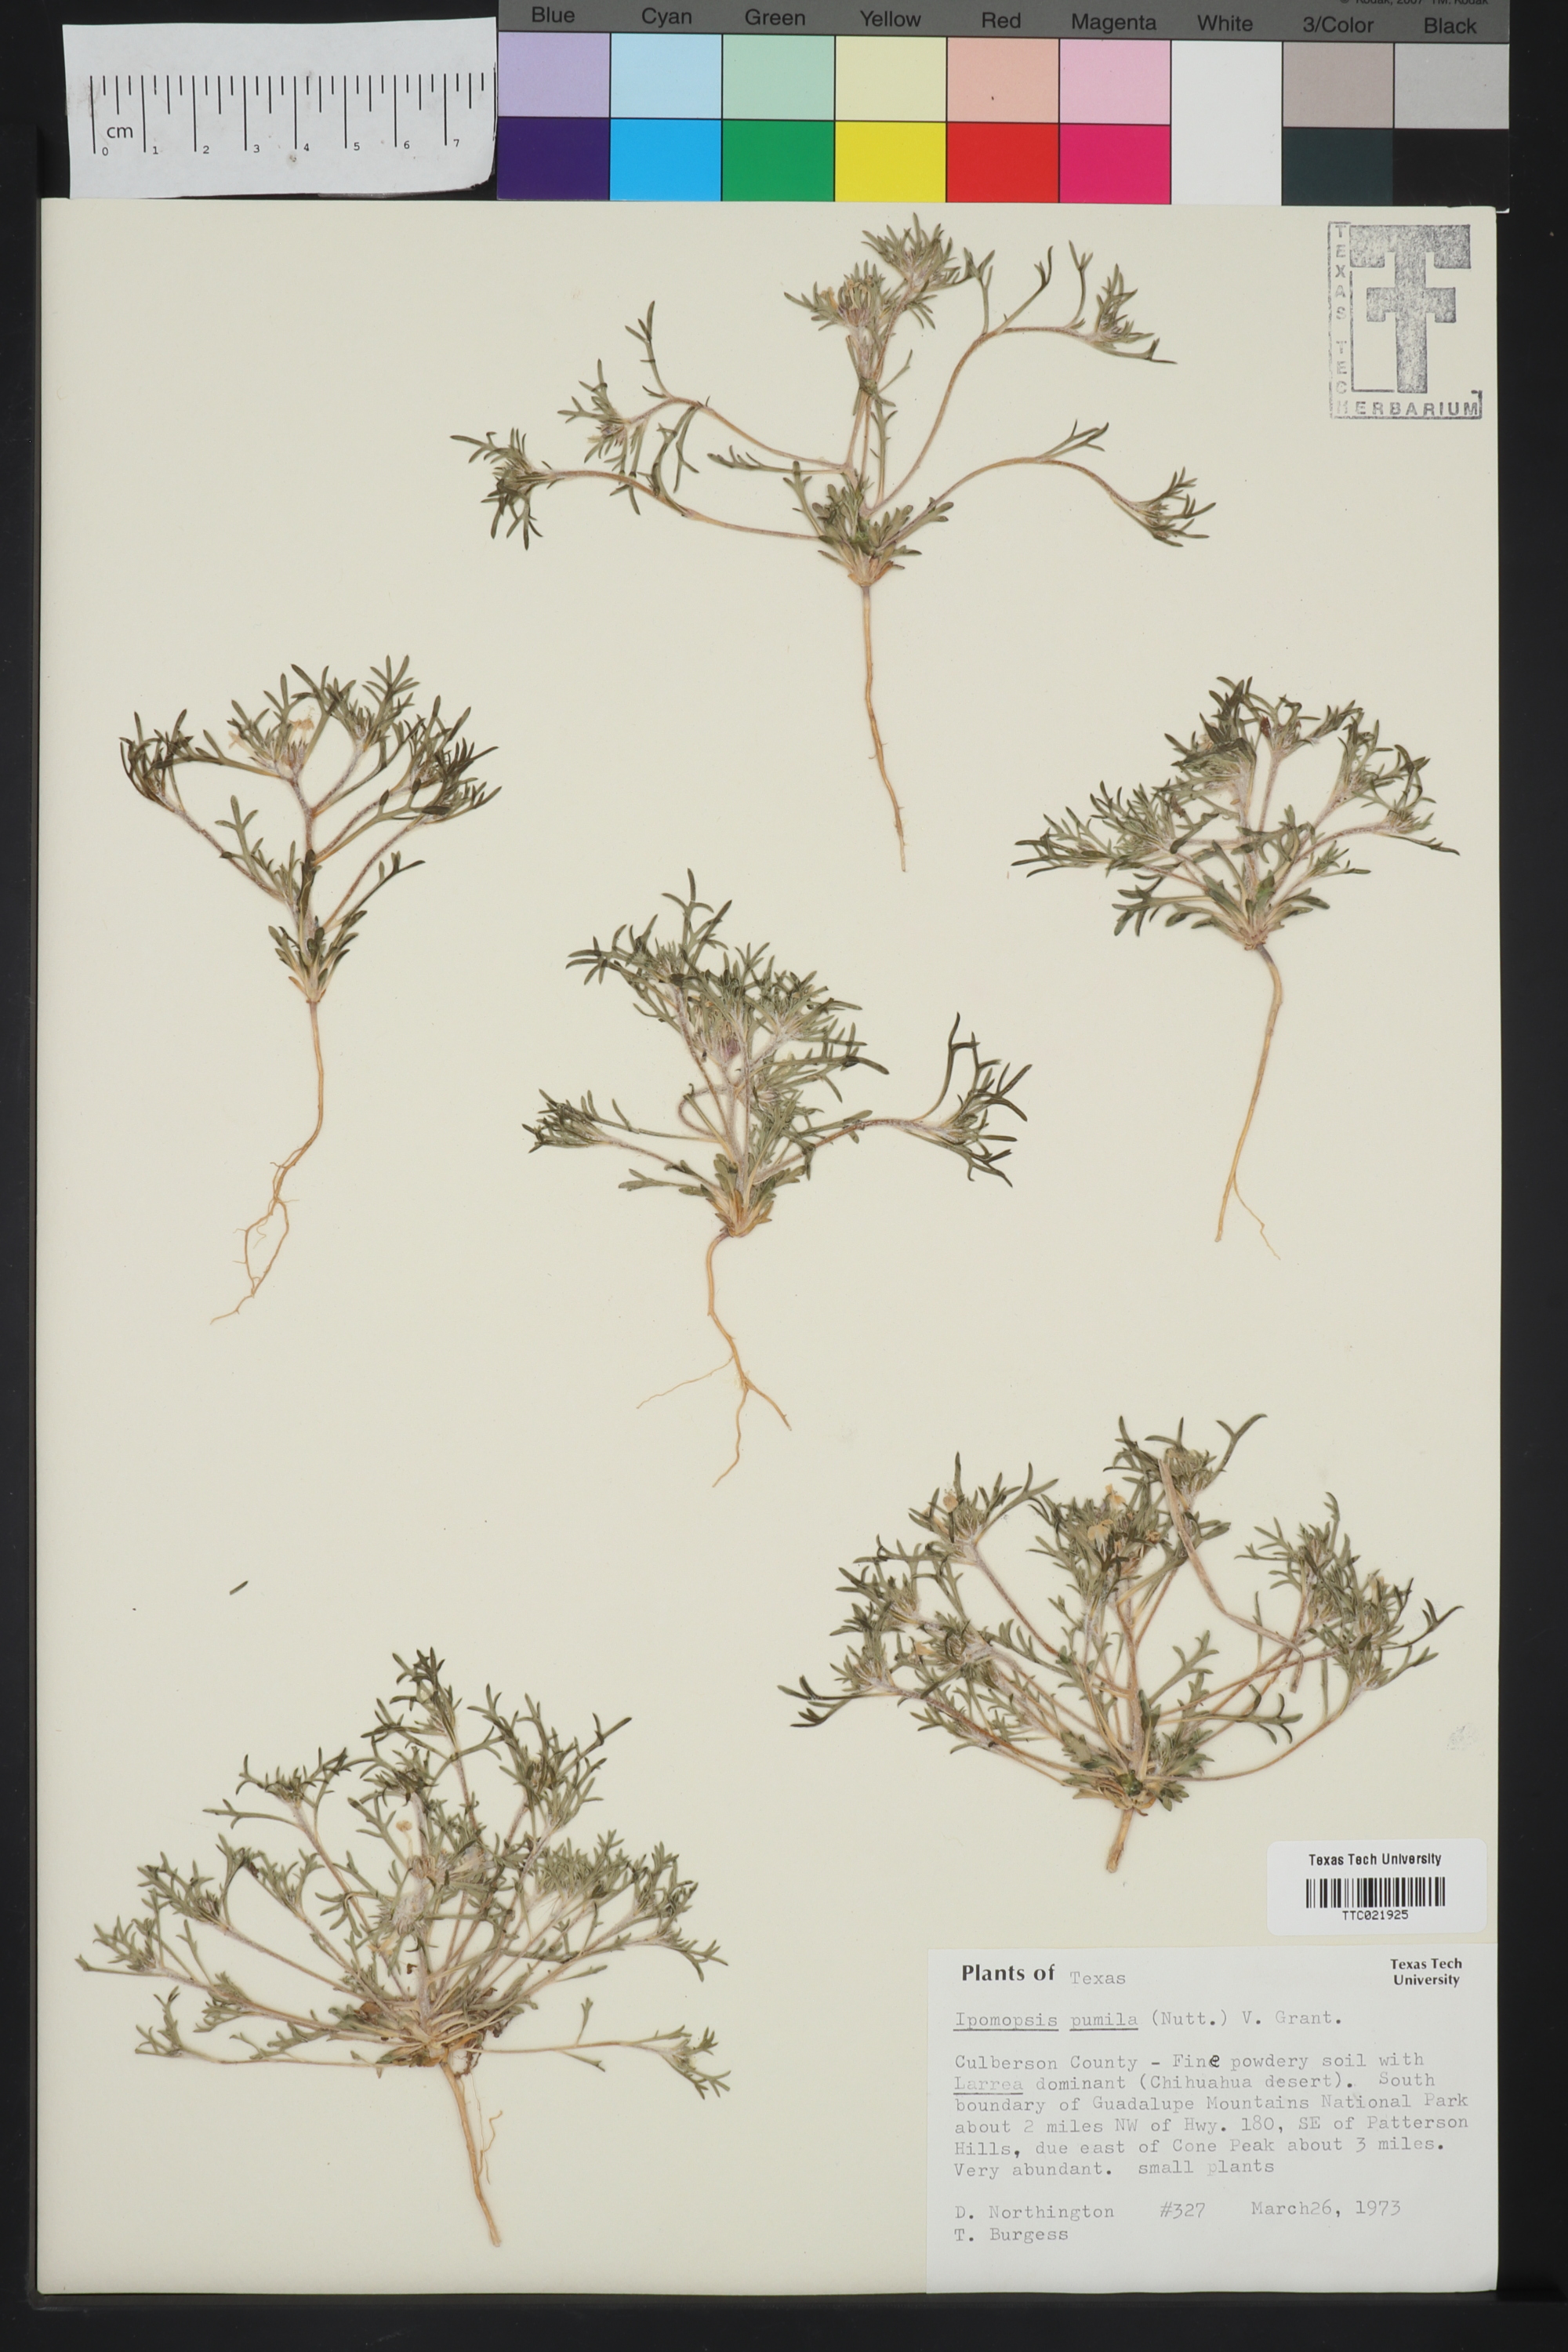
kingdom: Plantae
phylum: Tracheophyta
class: Magnoliopsida
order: Ericales
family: Polemoniaceae
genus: Ipomopsis
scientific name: Ipomopsis pumila
